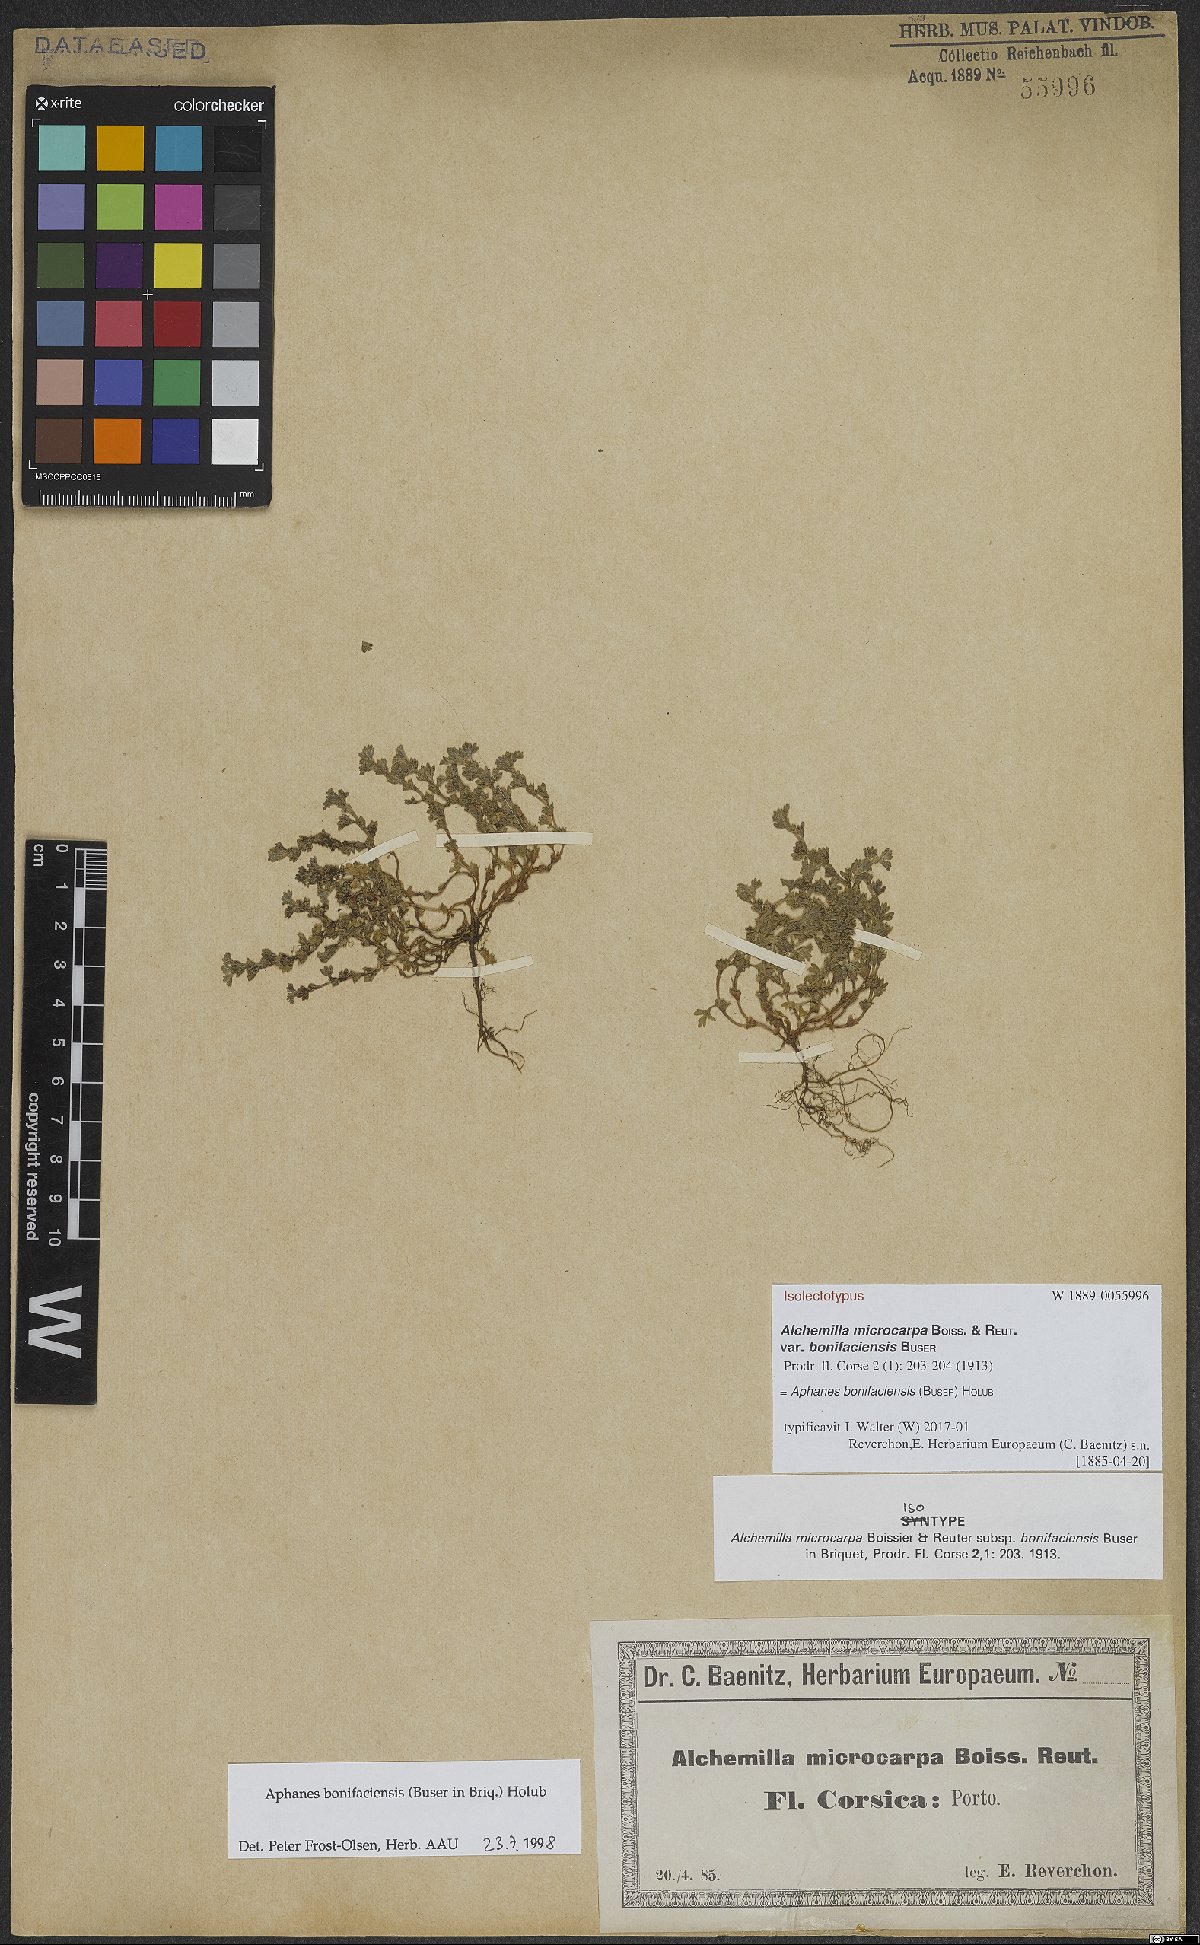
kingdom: Plantae
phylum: Tracheophyta
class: Magnoliopsida
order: Rosales
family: Rosaceae
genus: Aphanes
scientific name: Aphanes minutiflora
